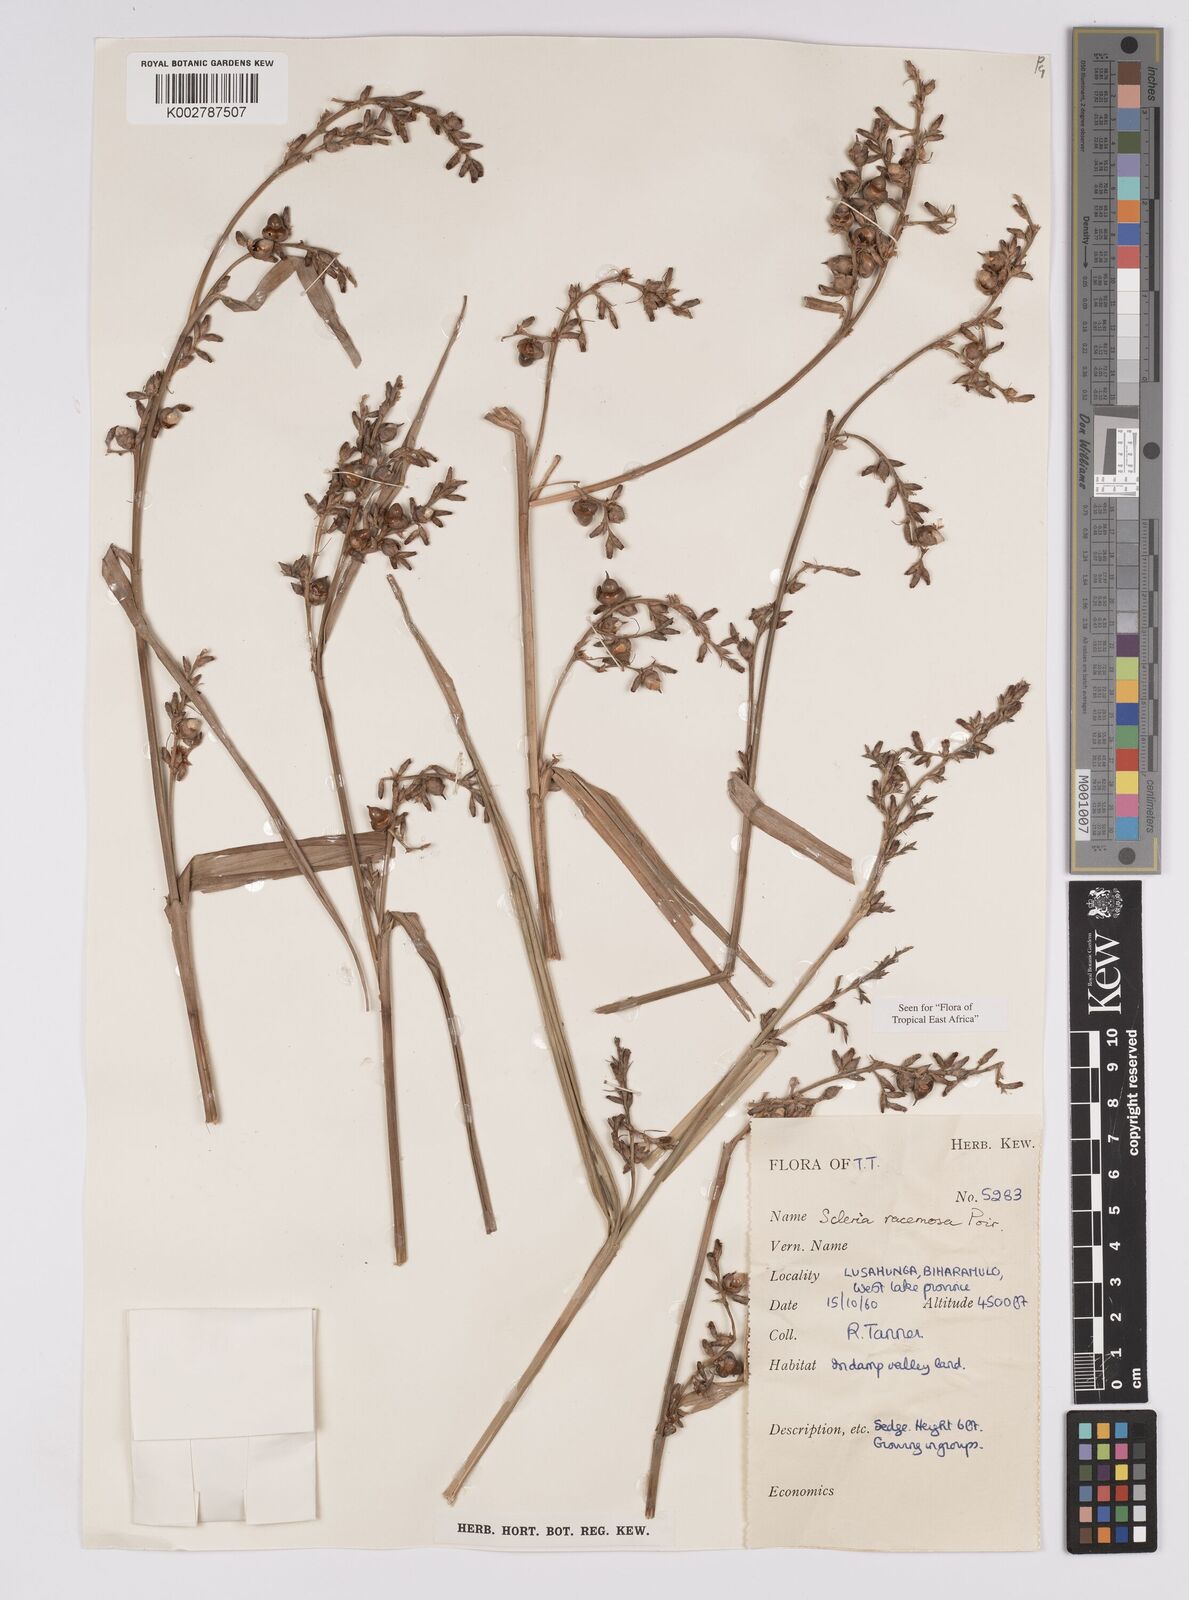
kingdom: Plantae
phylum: Tracheophyta
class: Liliopsida
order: Poales
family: Cyperaceae
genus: Scleria
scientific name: Scleria racemosa
